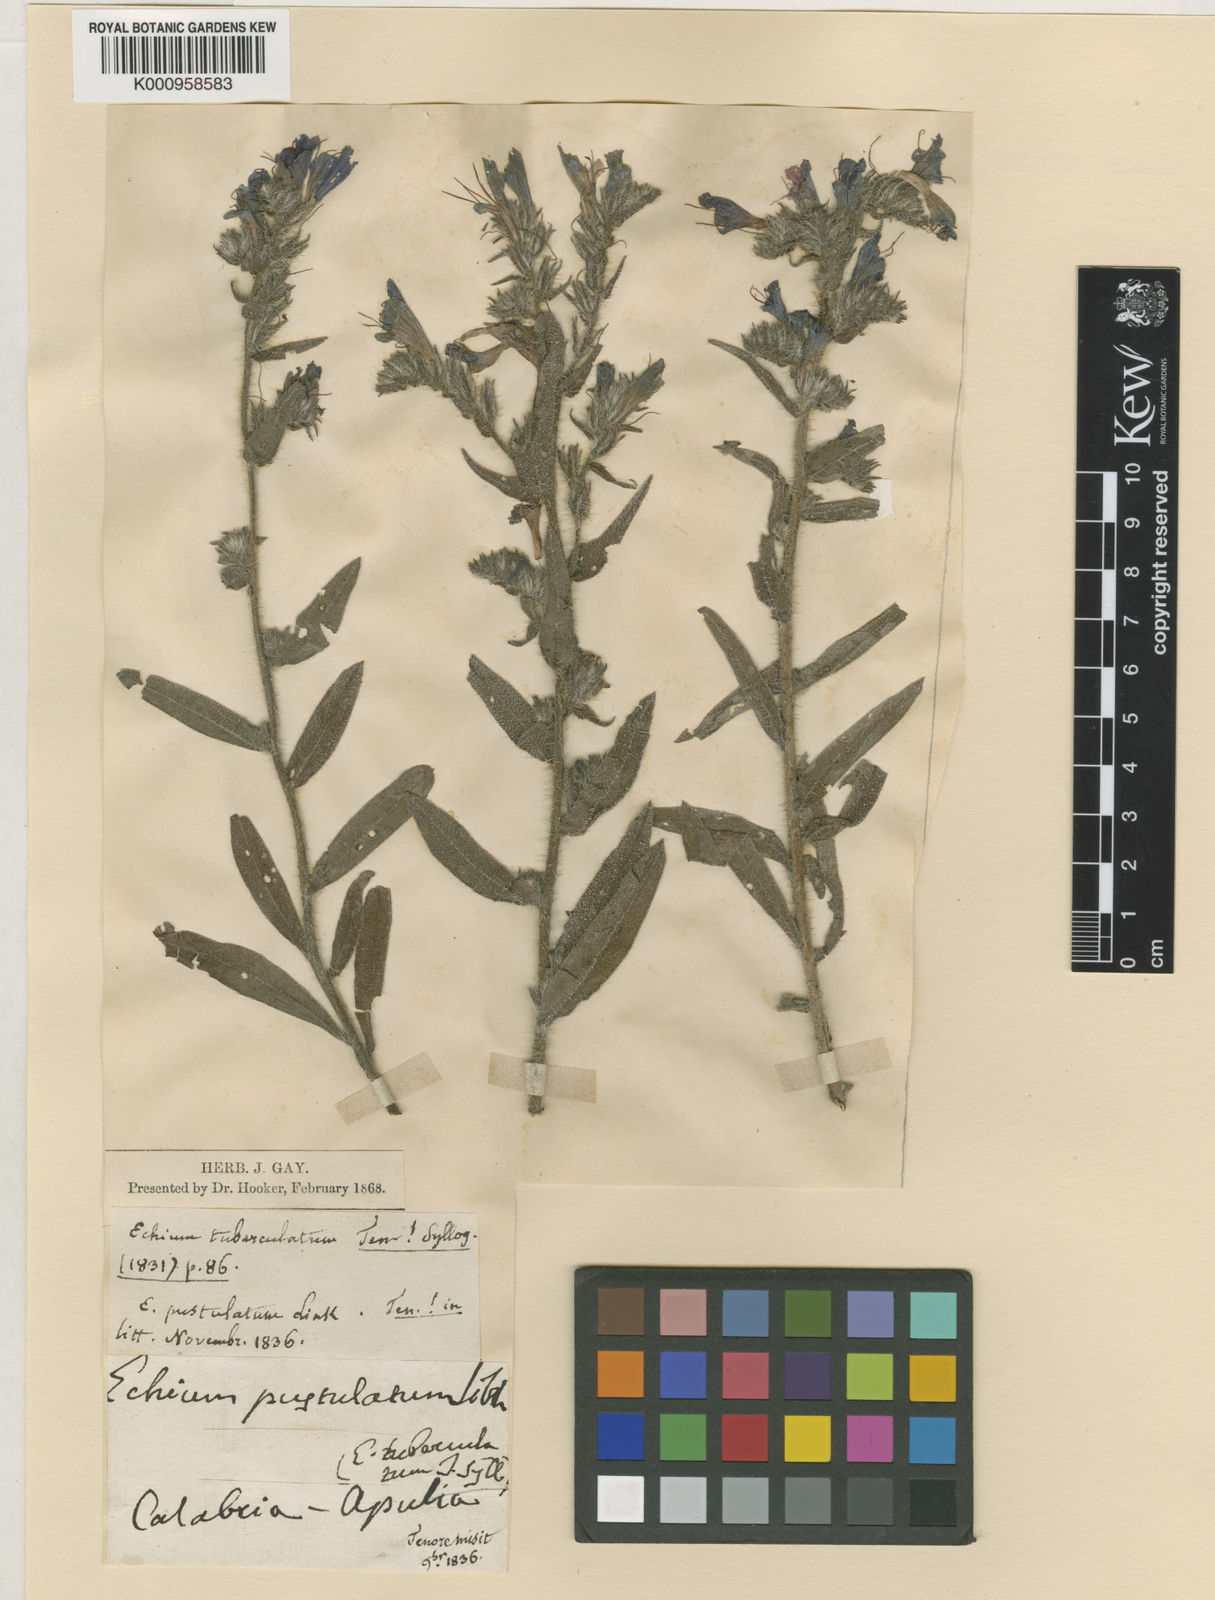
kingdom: Plantae
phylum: Tracheophyta
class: Magnoliopsida
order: Boraginales
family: Boraginaceae
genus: Echium
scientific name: Echium flavum
